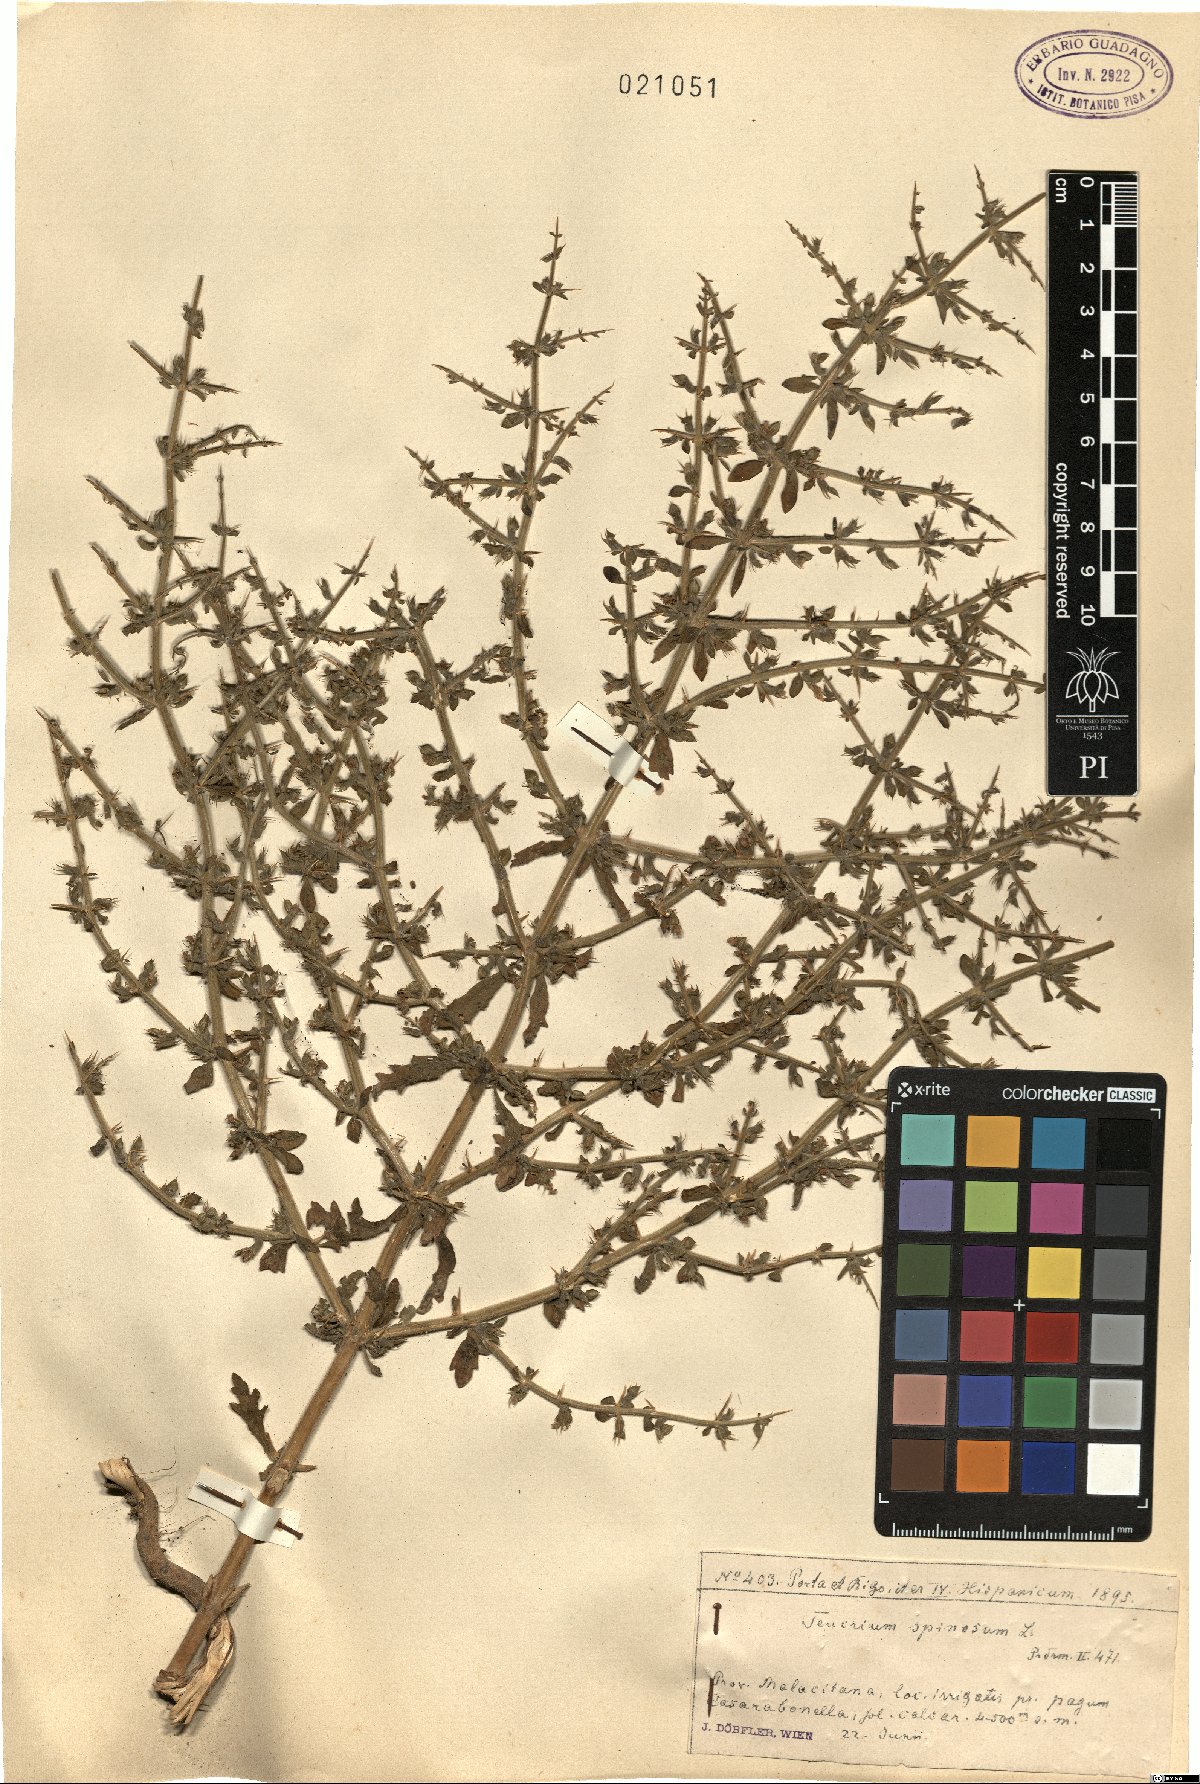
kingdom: Plantae
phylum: Tracheophyta
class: Magnoliopsida
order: Lamiales
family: Lamiaceae
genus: Teucrium
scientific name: Teucrium spinosum
